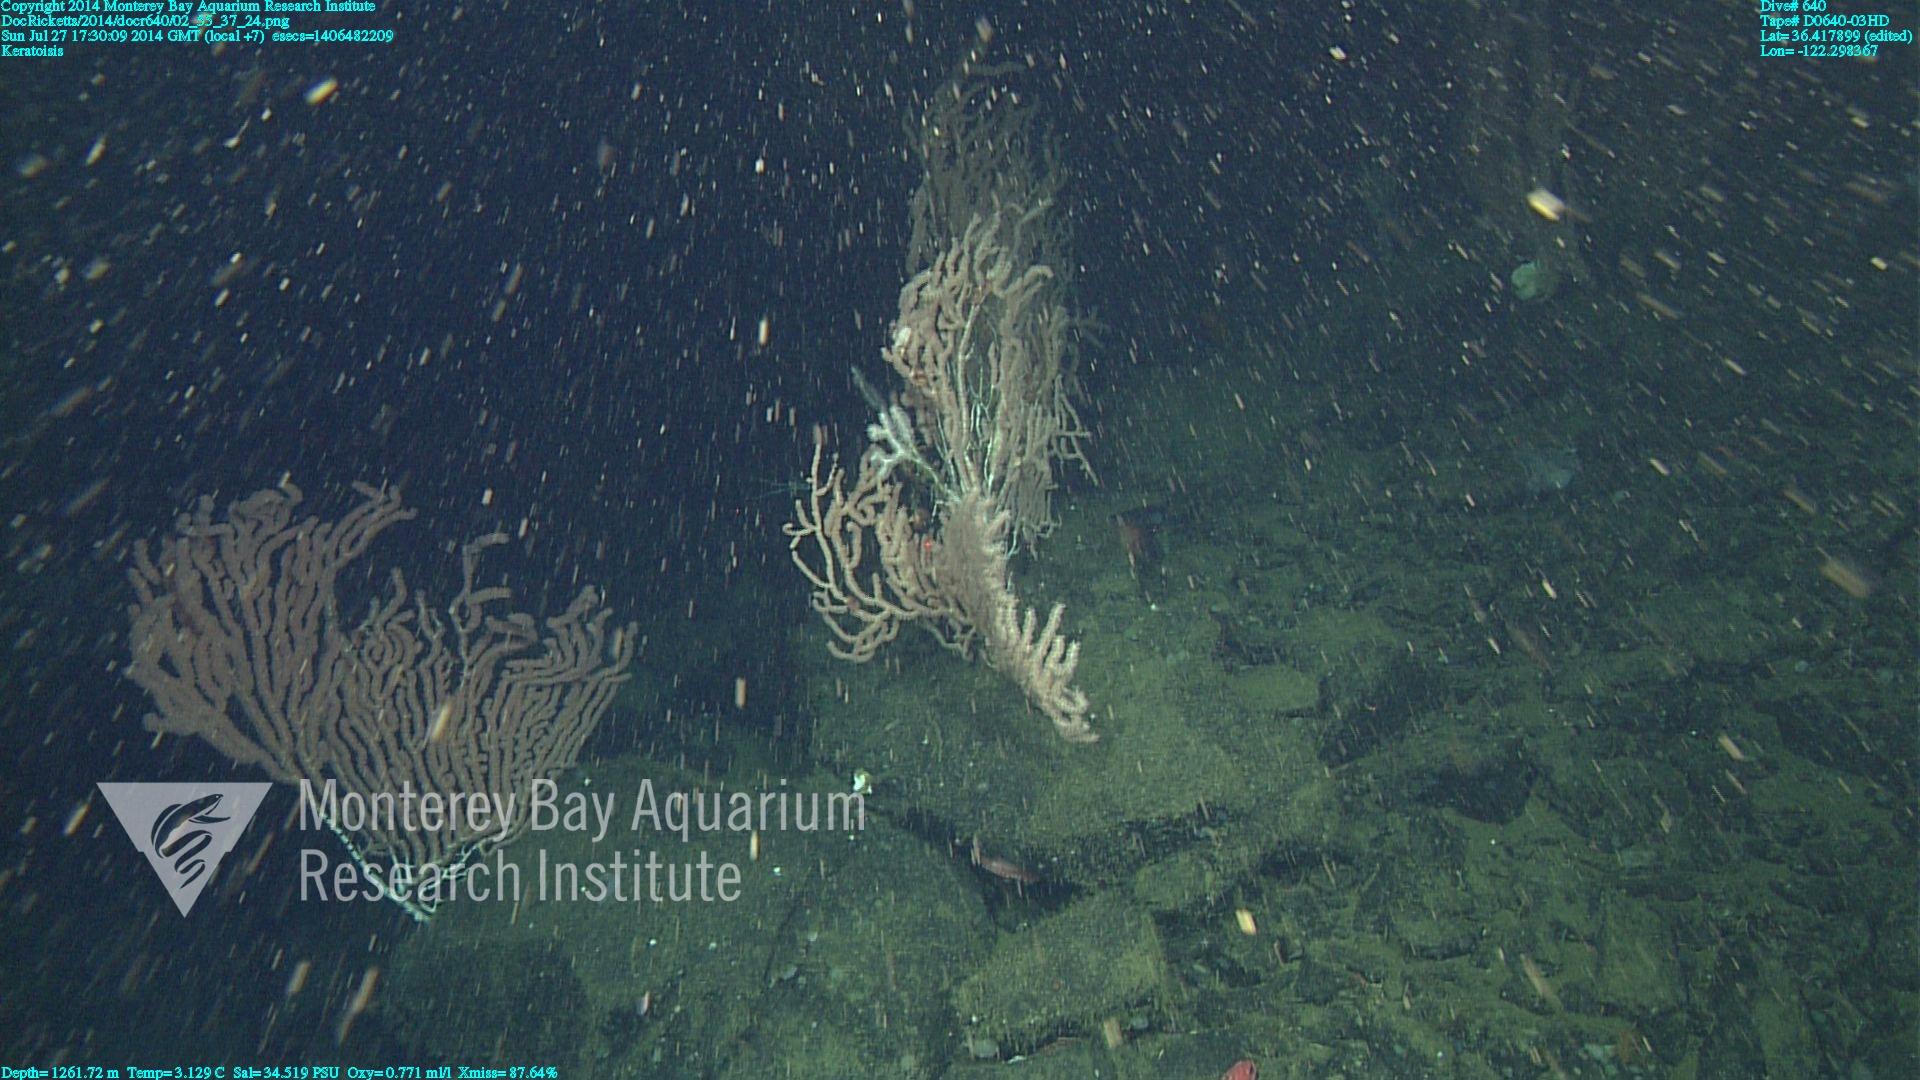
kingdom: Animalia
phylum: Cnidaria
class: Anthozoa
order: Scleralcyonacea
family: Keratoisididae
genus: Keratoisis
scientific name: Keratoisis
